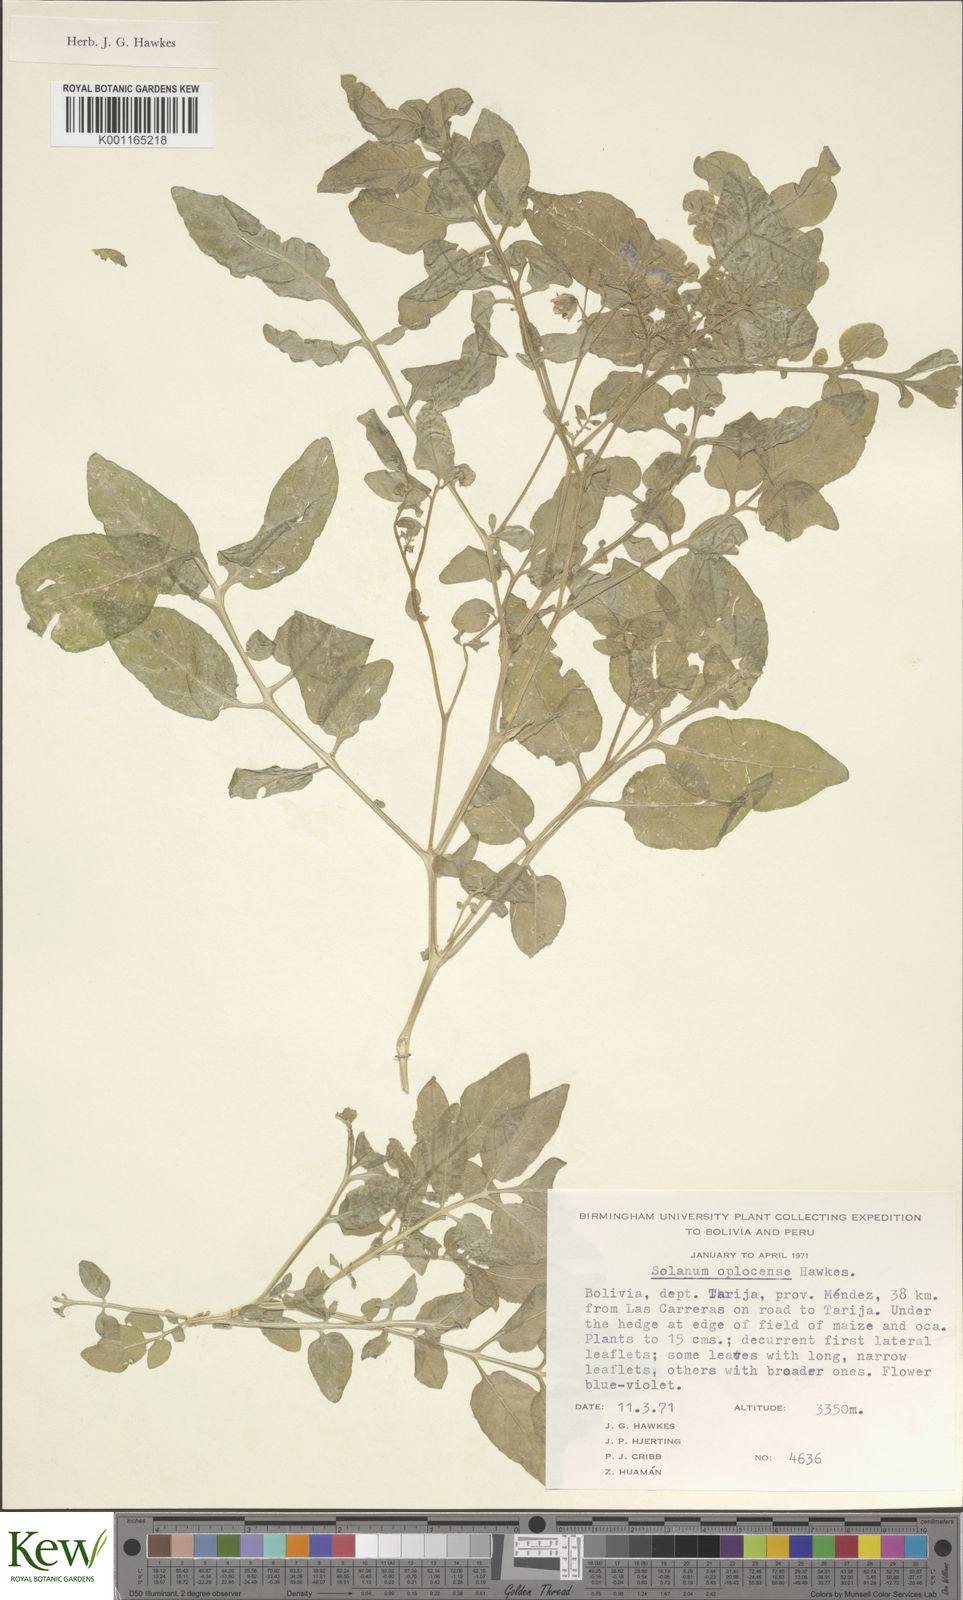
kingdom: Plantae
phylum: Tracheophyta
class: Magnoliopsida
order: Solanales
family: Solanaceae
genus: Solanum
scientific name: Solanum brevicaule
